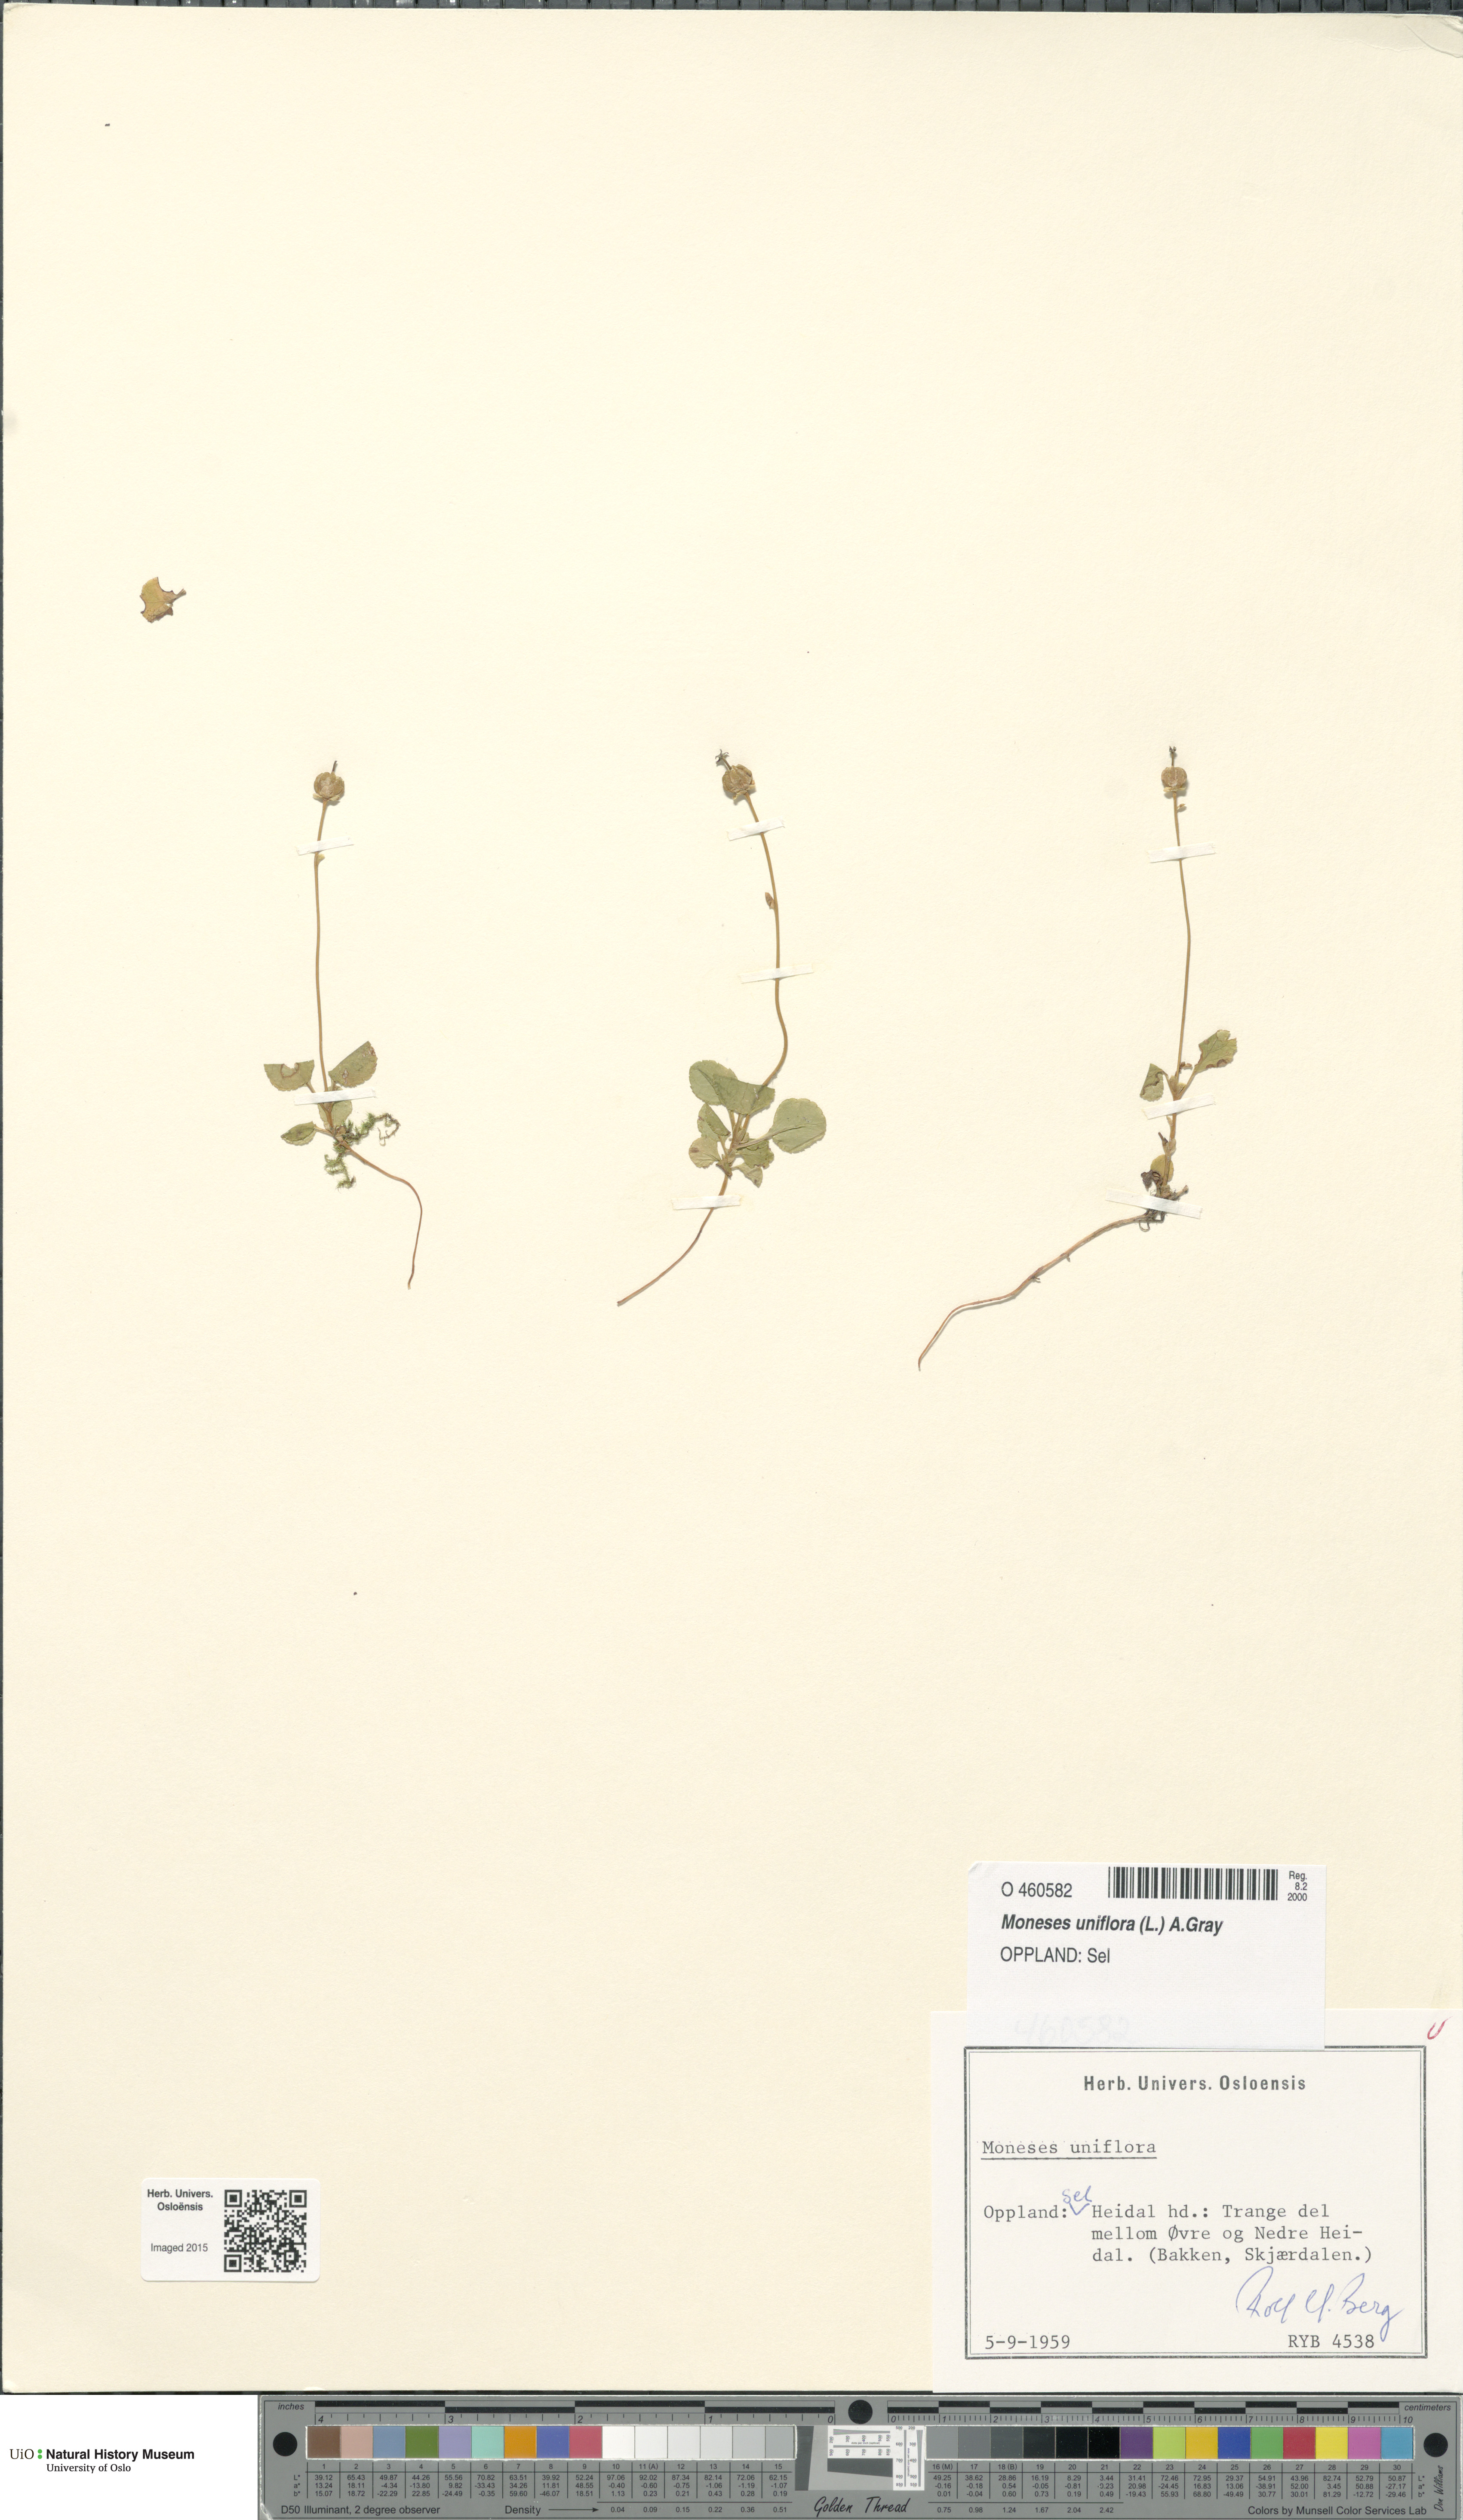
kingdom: Plantae
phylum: Tracheophyta
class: Magnoliopsida
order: Ericales
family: Ericaceae
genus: Moneses
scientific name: Moneses uniflora
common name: One-flowered wintergreen
